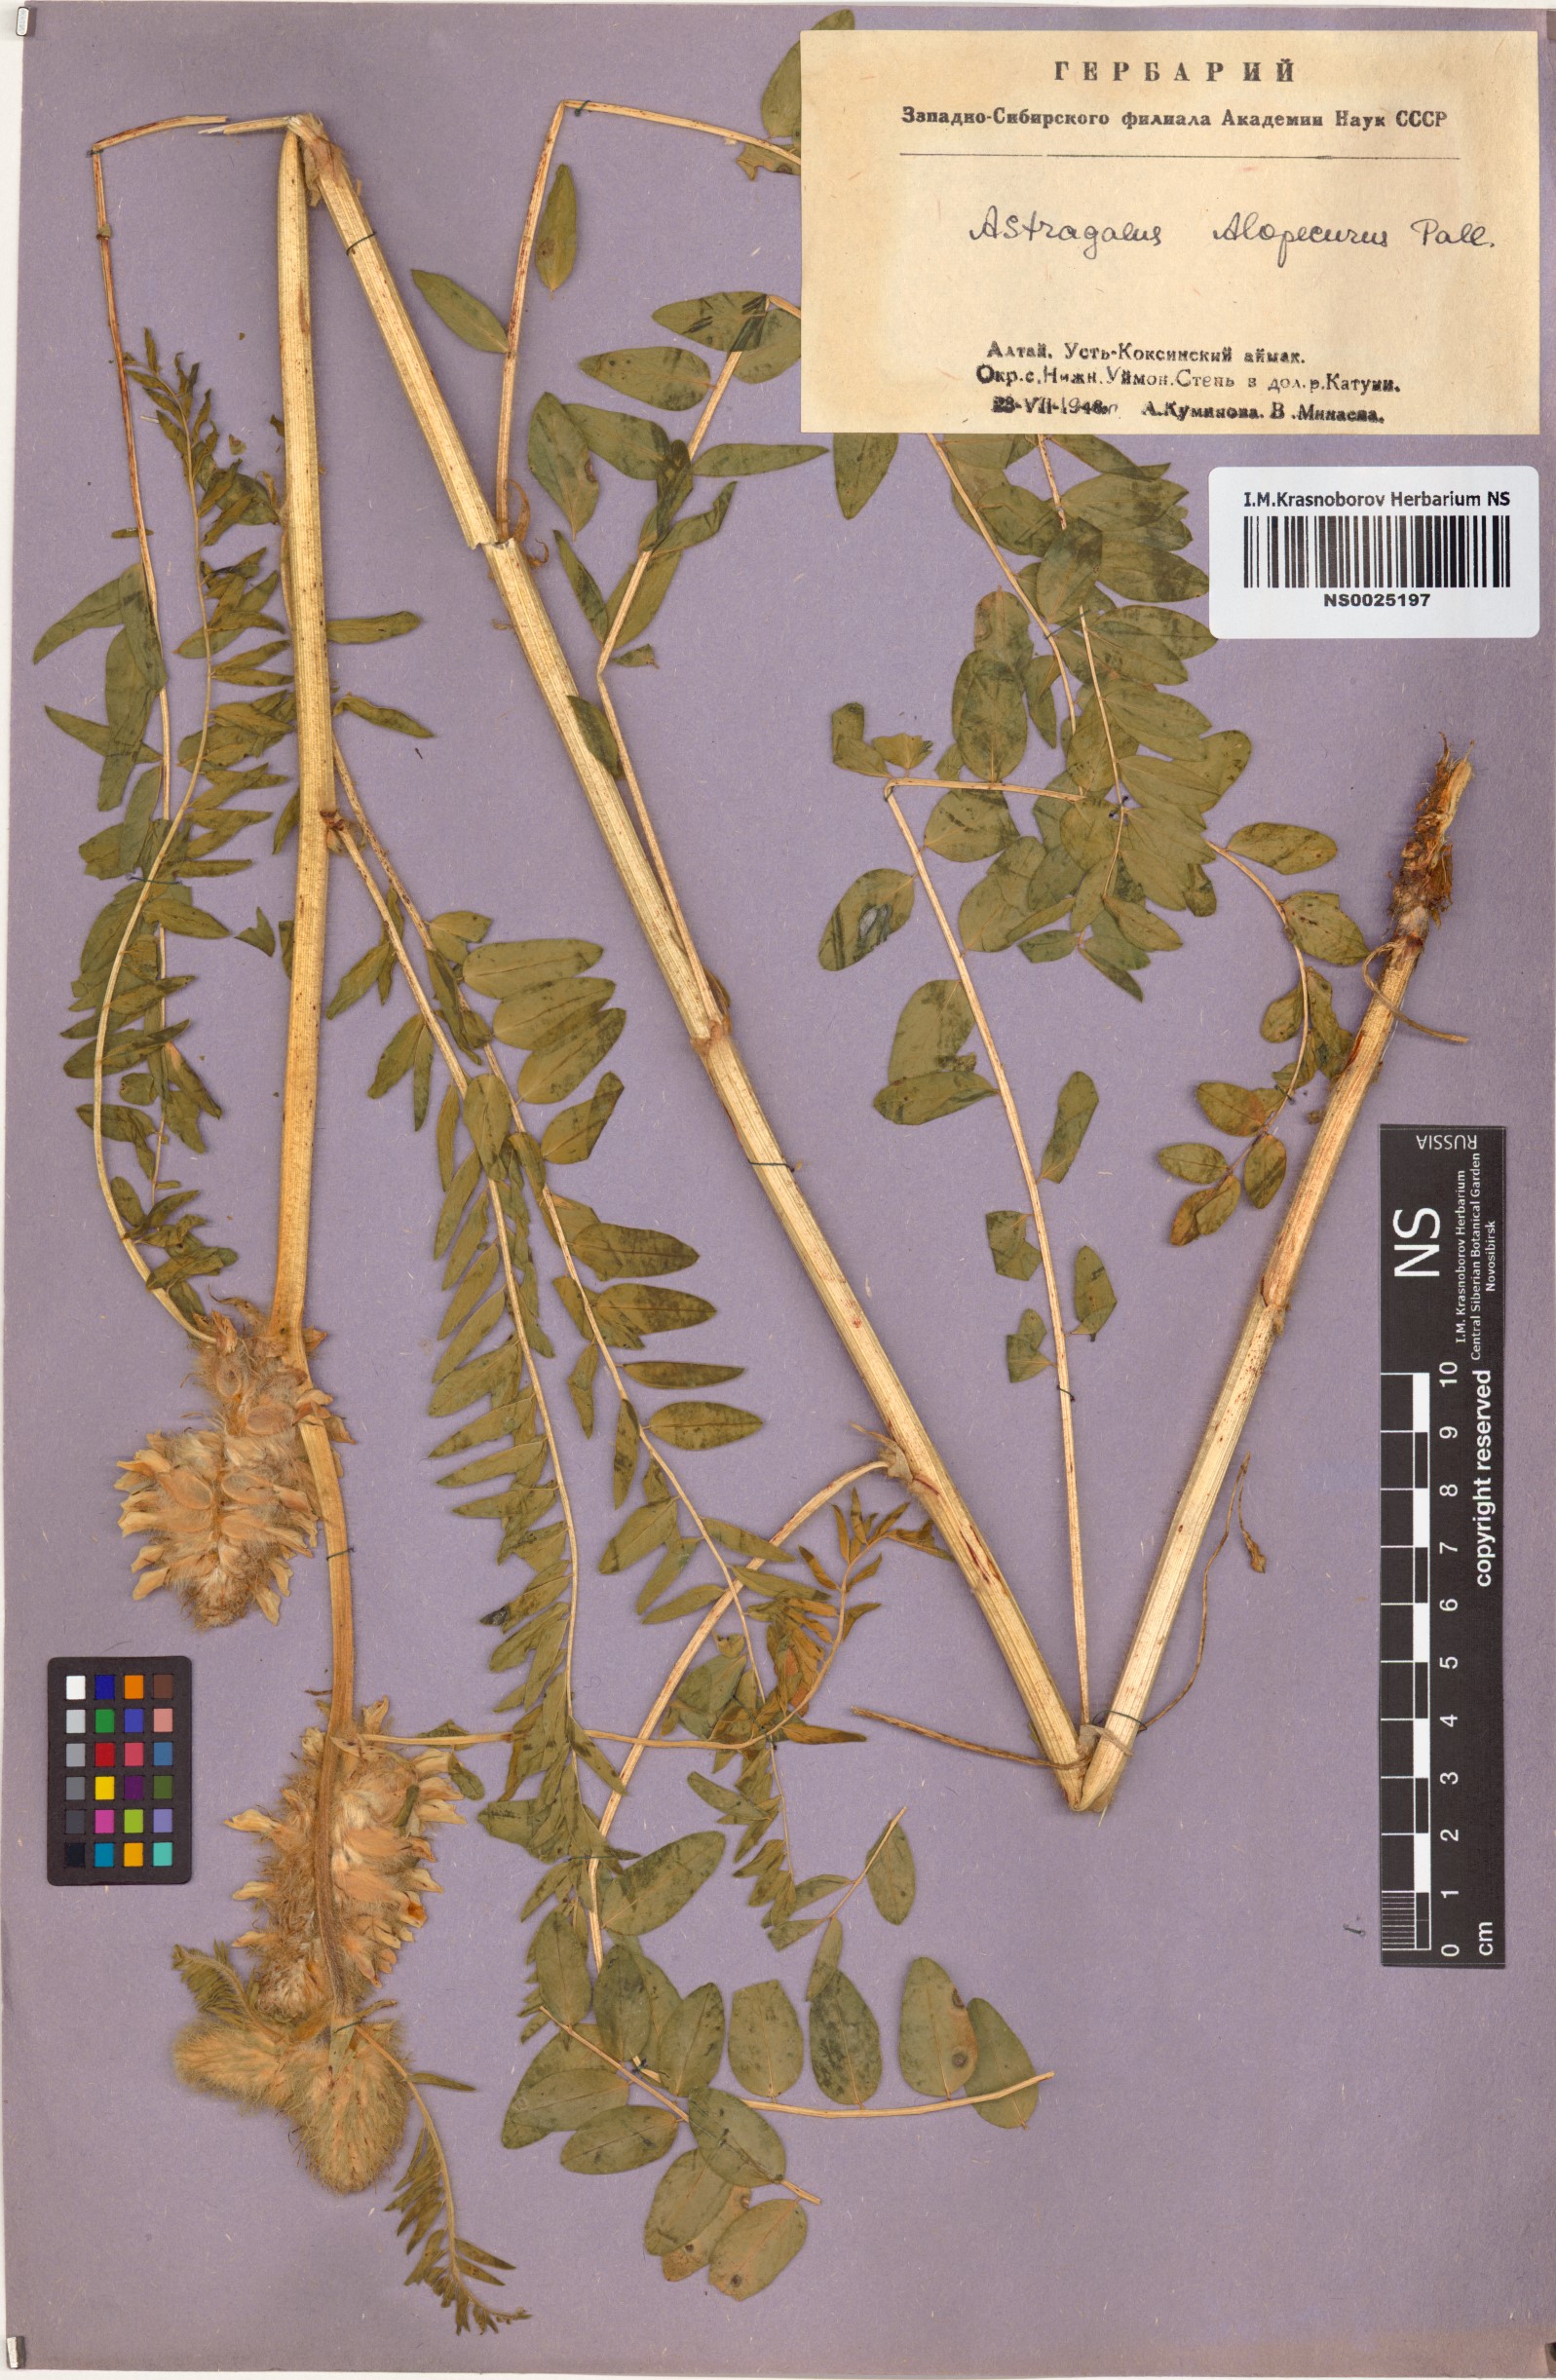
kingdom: Plantae
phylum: Tracheophyta
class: Magnoliopsida
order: Fabales
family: Fabaceae
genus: Astragalus
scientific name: Astragalus alopecurus
